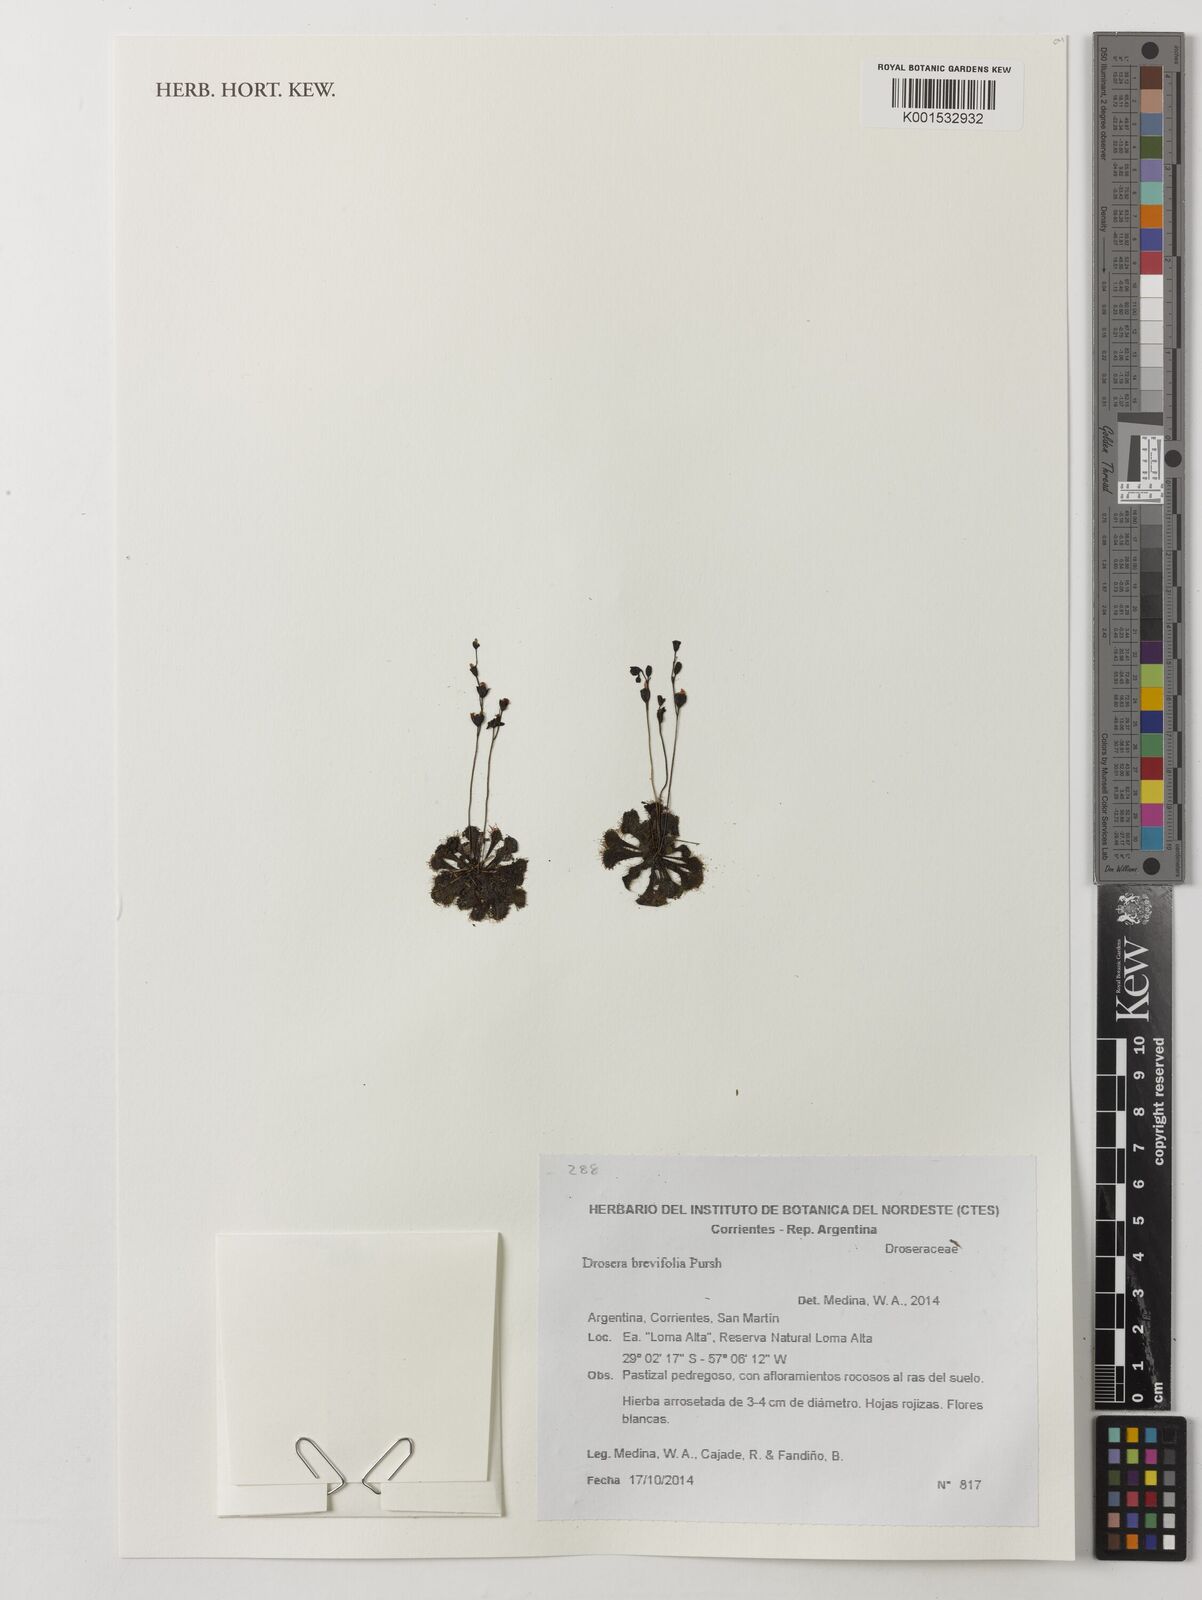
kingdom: Plantae
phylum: Tracheophyta
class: Magnoliopsida
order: Caryophyllales
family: Droseraceae
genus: Drosera
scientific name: Drosera brevifolia
